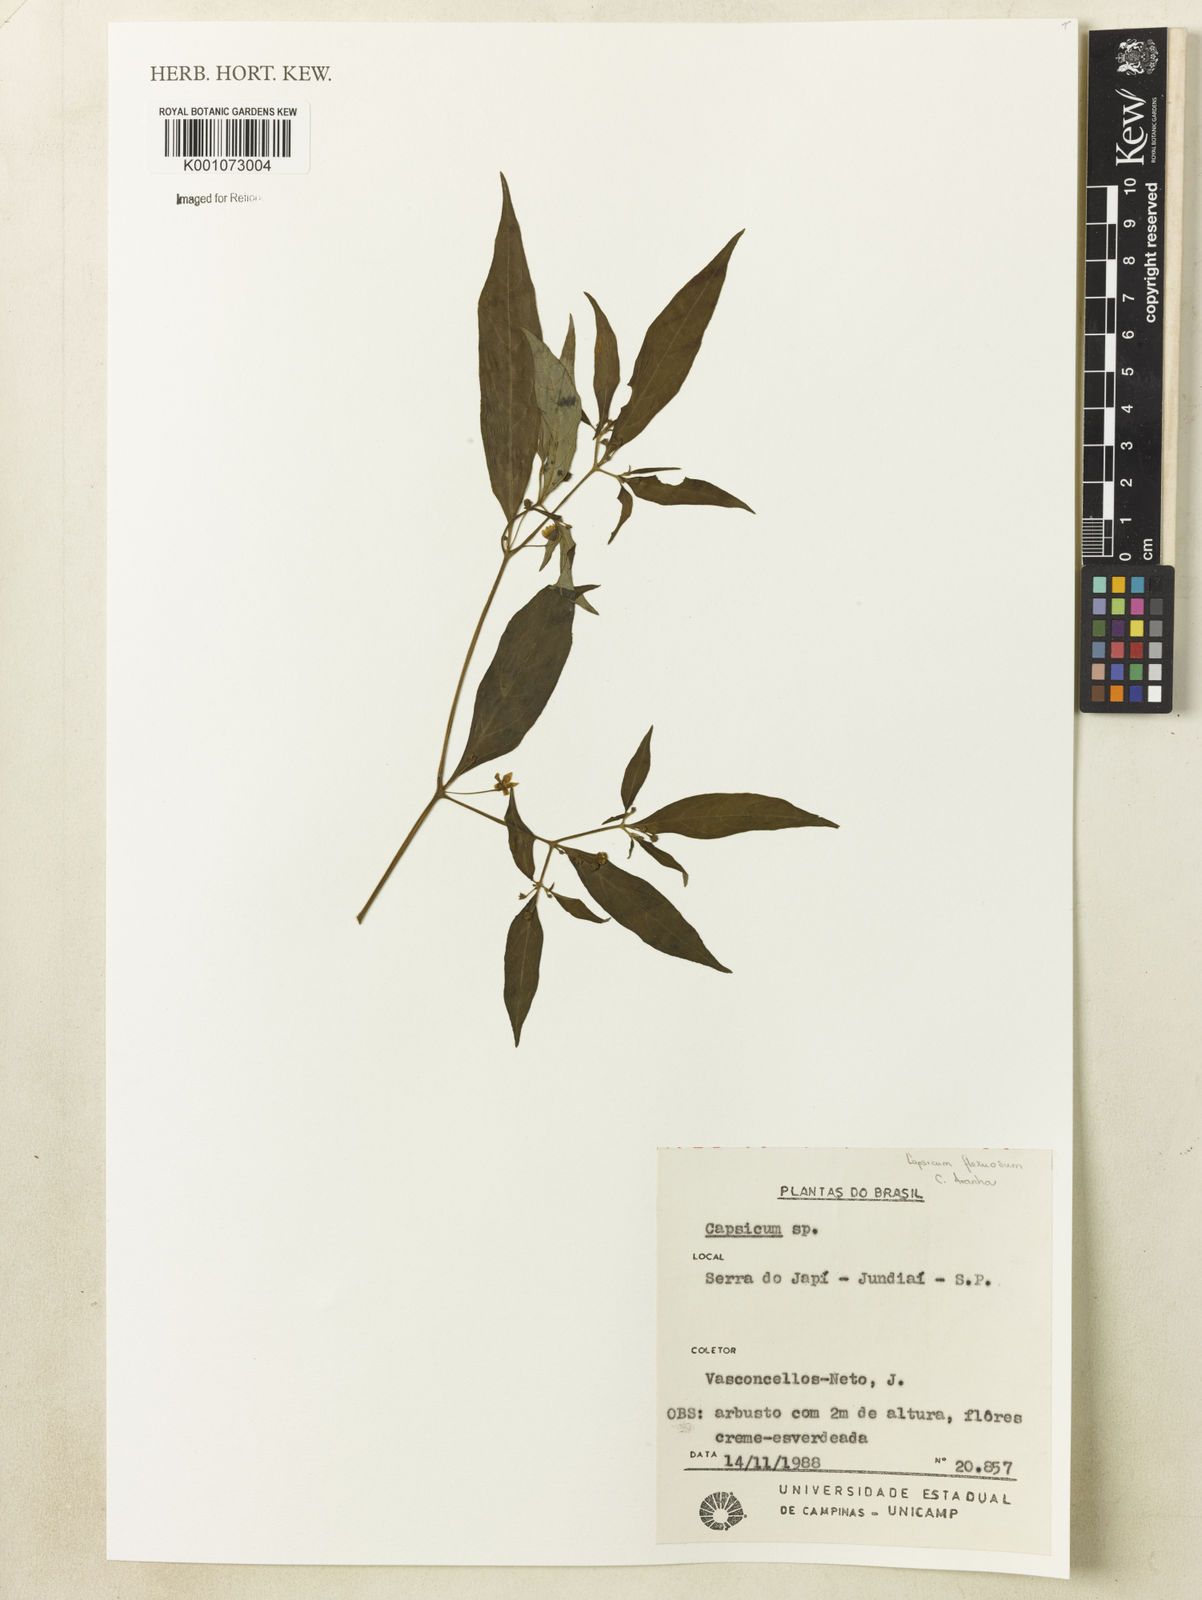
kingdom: Plantae
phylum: Tracheophyta
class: Magnoliopsida
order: Solanales
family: Solanaceae
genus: Capsicum
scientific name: Capsicum flexuosum
